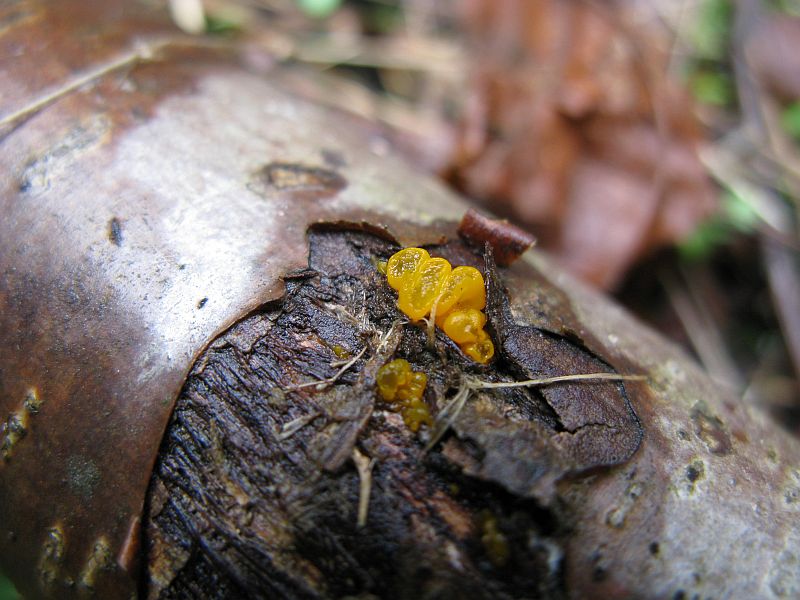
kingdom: Fungi
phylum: Basidiomycota
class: Dacrymycetes
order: Dacrymycetales
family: Dacrymycetaceae
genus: Dacrymyces
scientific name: Dacrymyces stillatus
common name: almindelig tåresvamp
